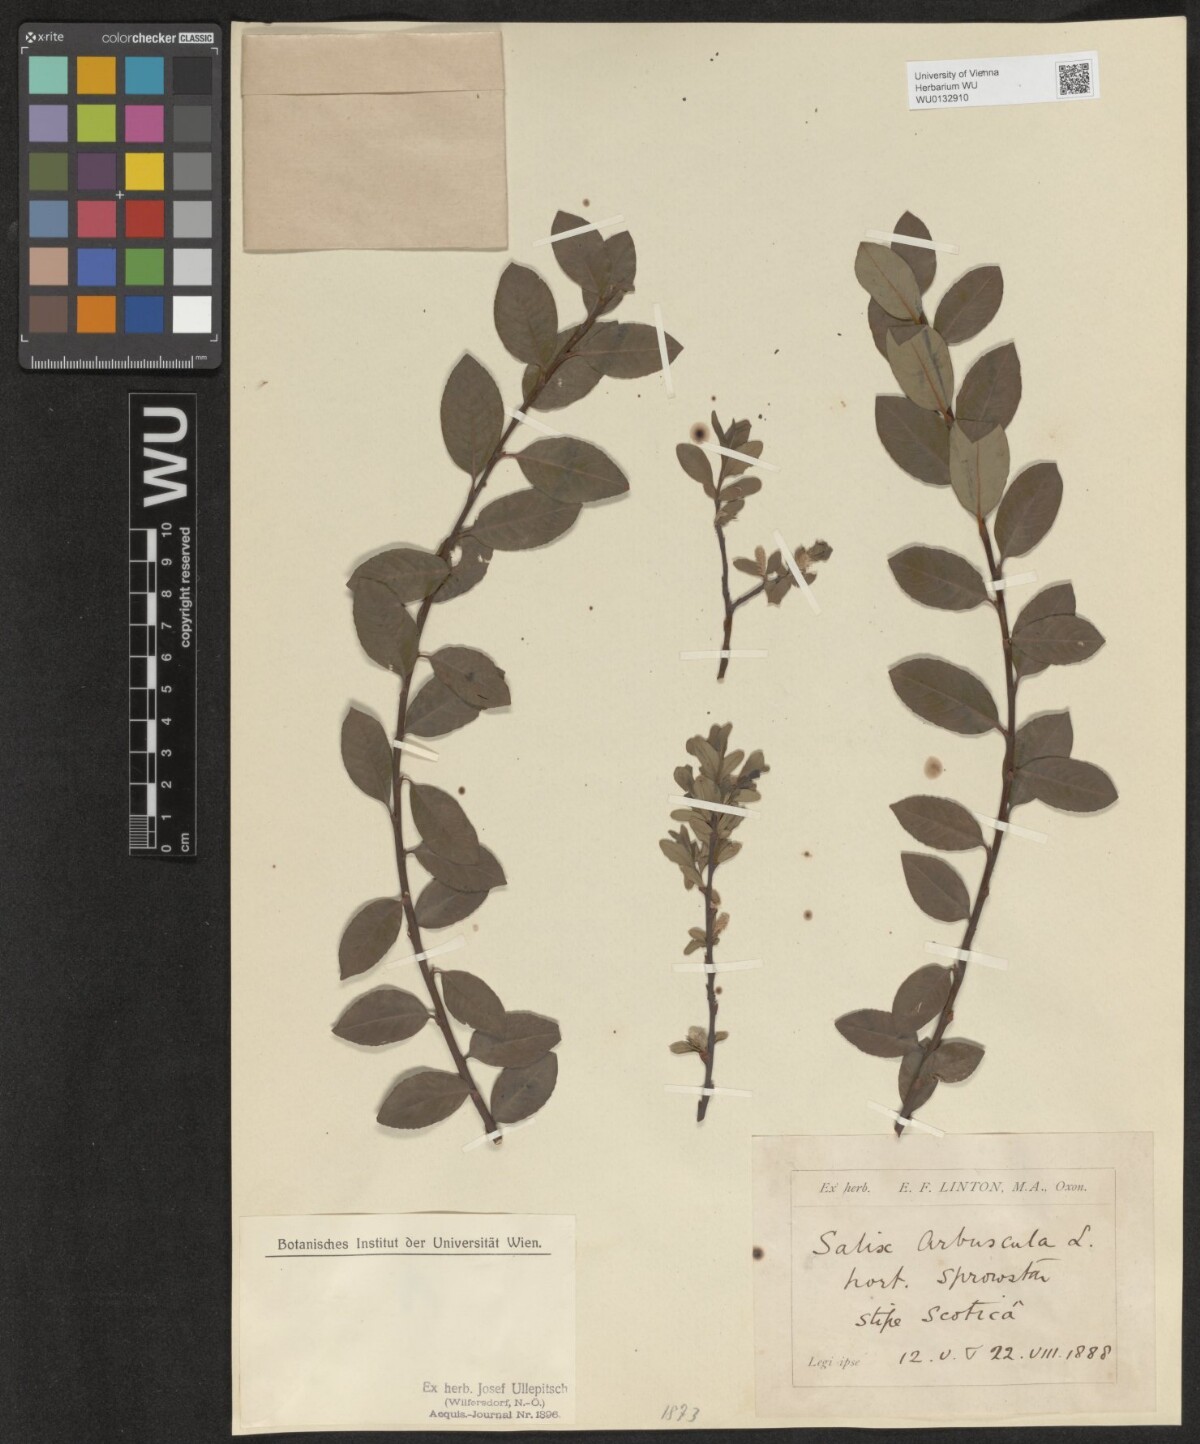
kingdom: Plantae
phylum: Tracheophyta
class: Magnoliopsida
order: Malpighiales
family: Salicaceae
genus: Salix
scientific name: Salix arbuscula
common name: Mountain willow
